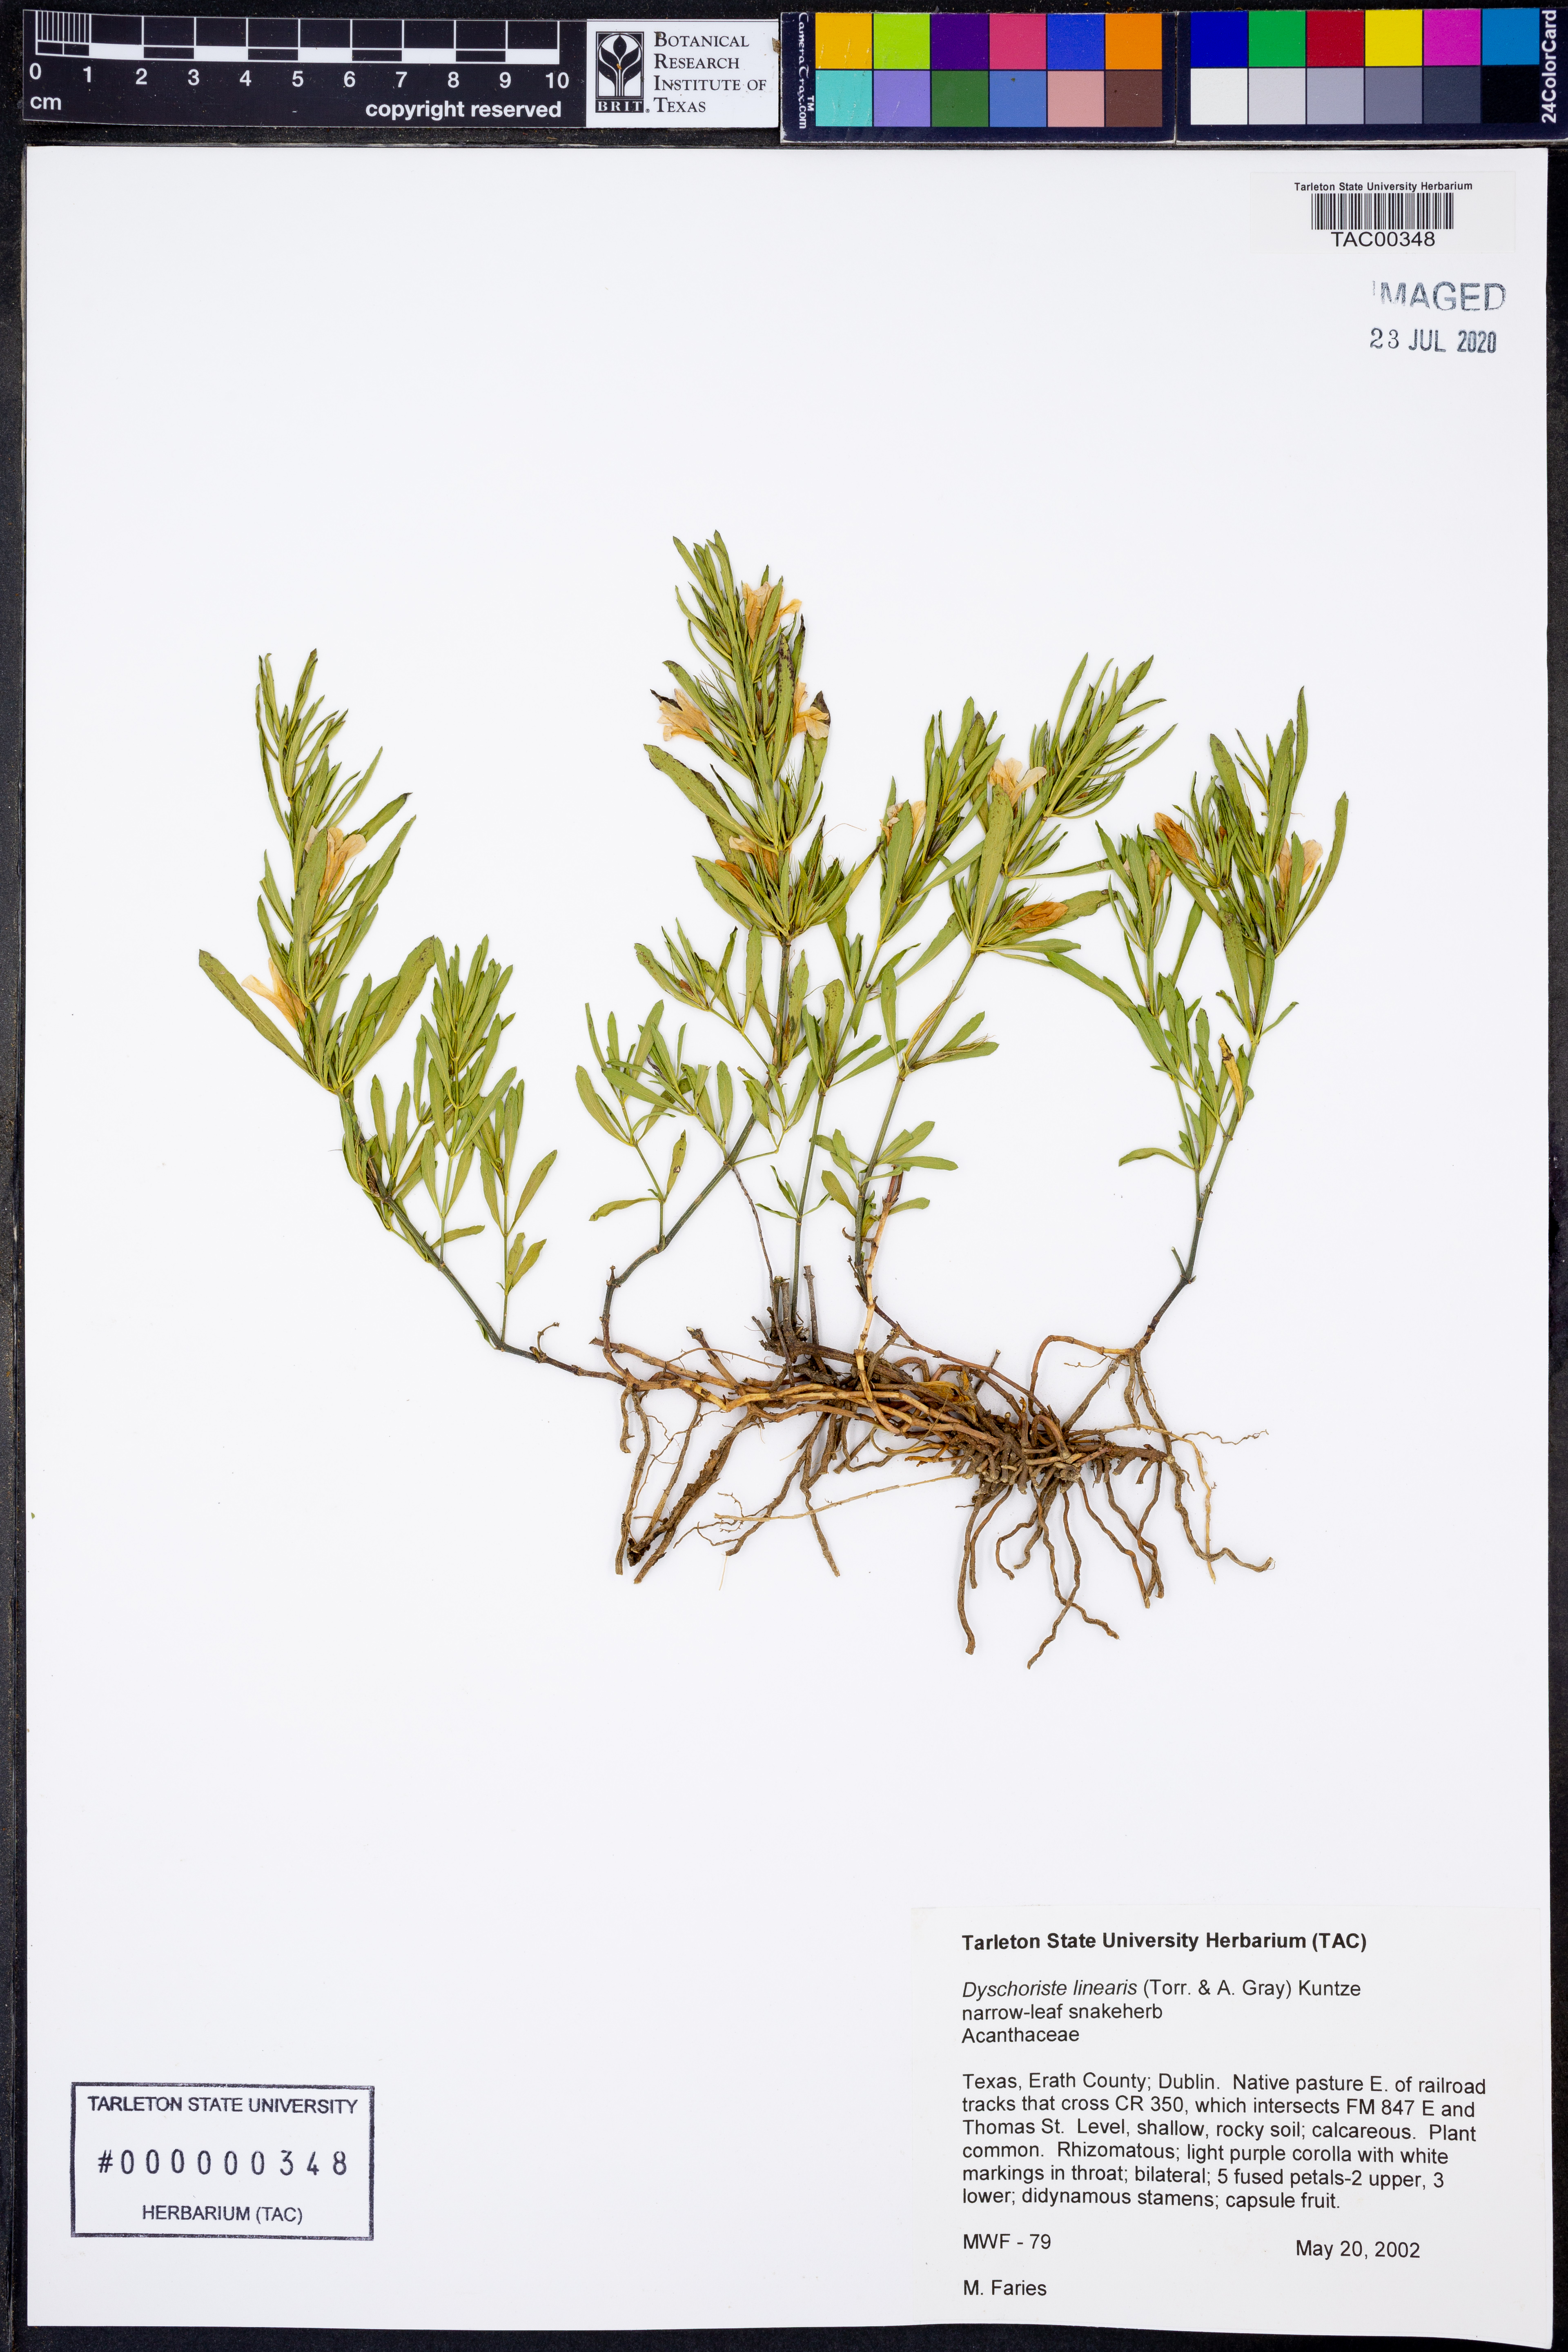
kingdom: Plantae
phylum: Tracheophyta
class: Magnoliopsida
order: Lamiales
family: Acanthaceae
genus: Dyschoriste
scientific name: Dyschoriste linearis
